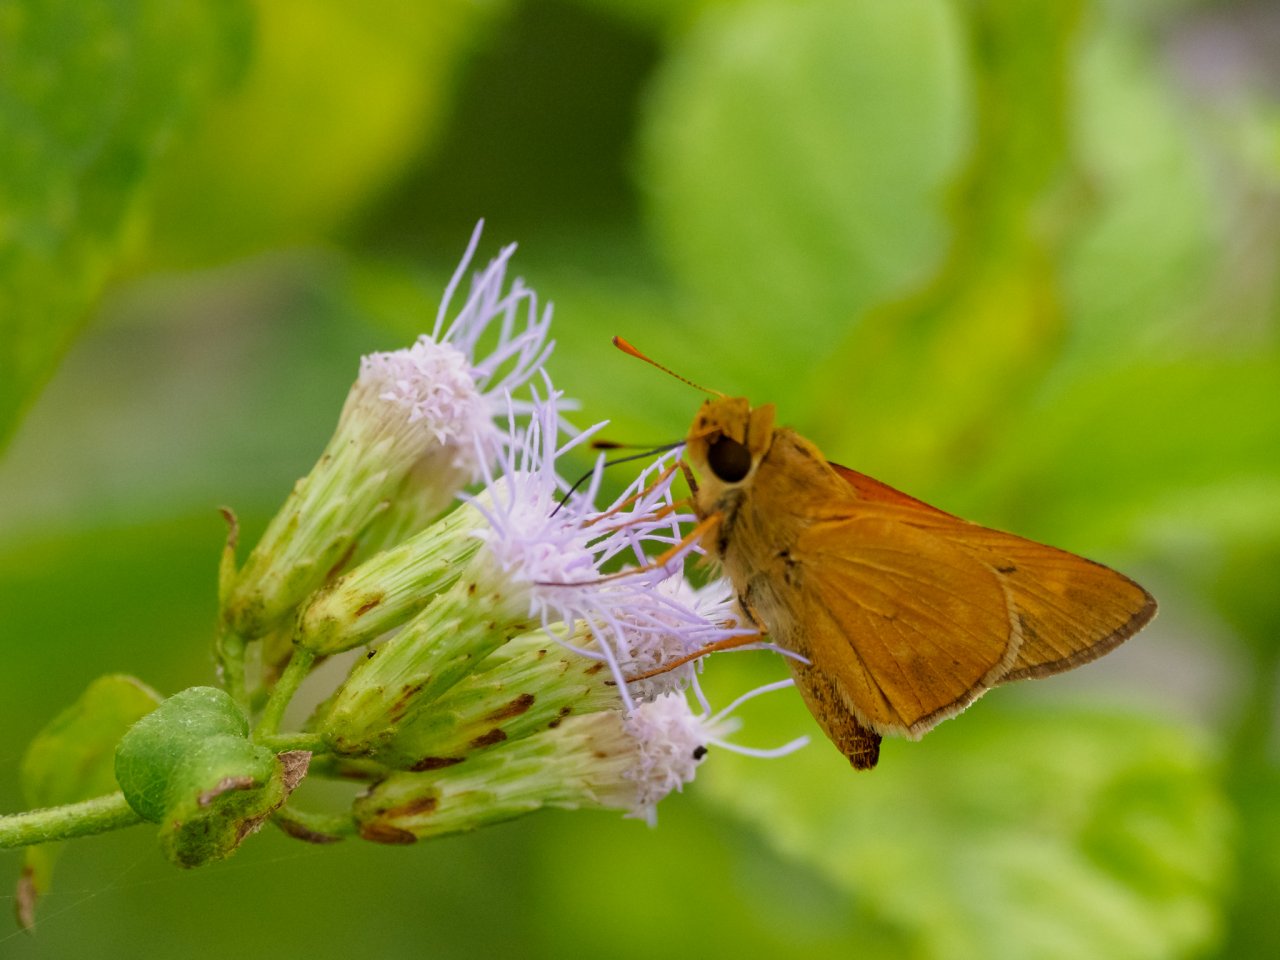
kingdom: Animalia
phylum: Arthropoda
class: Insecta
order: Lepidoptera
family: Hesperiidae
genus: Mellana
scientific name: Mellana eulogius
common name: Common Mellana
